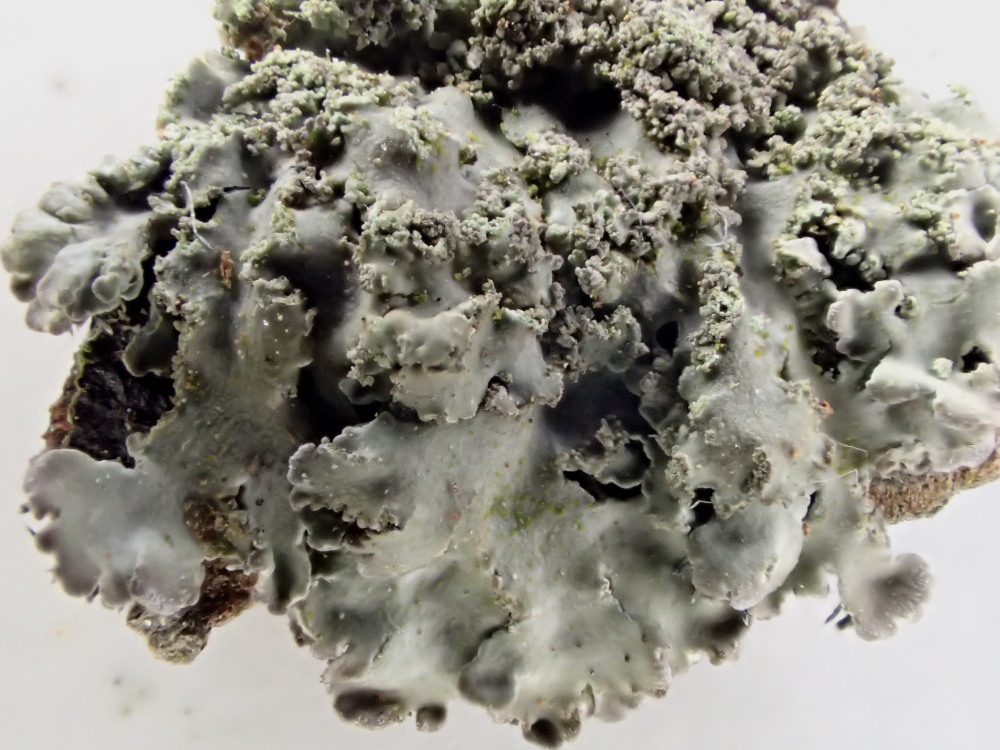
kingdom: Fungi
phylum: Ascomycota
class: Lecanoromycetes
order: Caliciales
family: Physciaceae
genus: Physconia
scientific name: Physconia perisidiosa
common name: liden dugrosetlav
